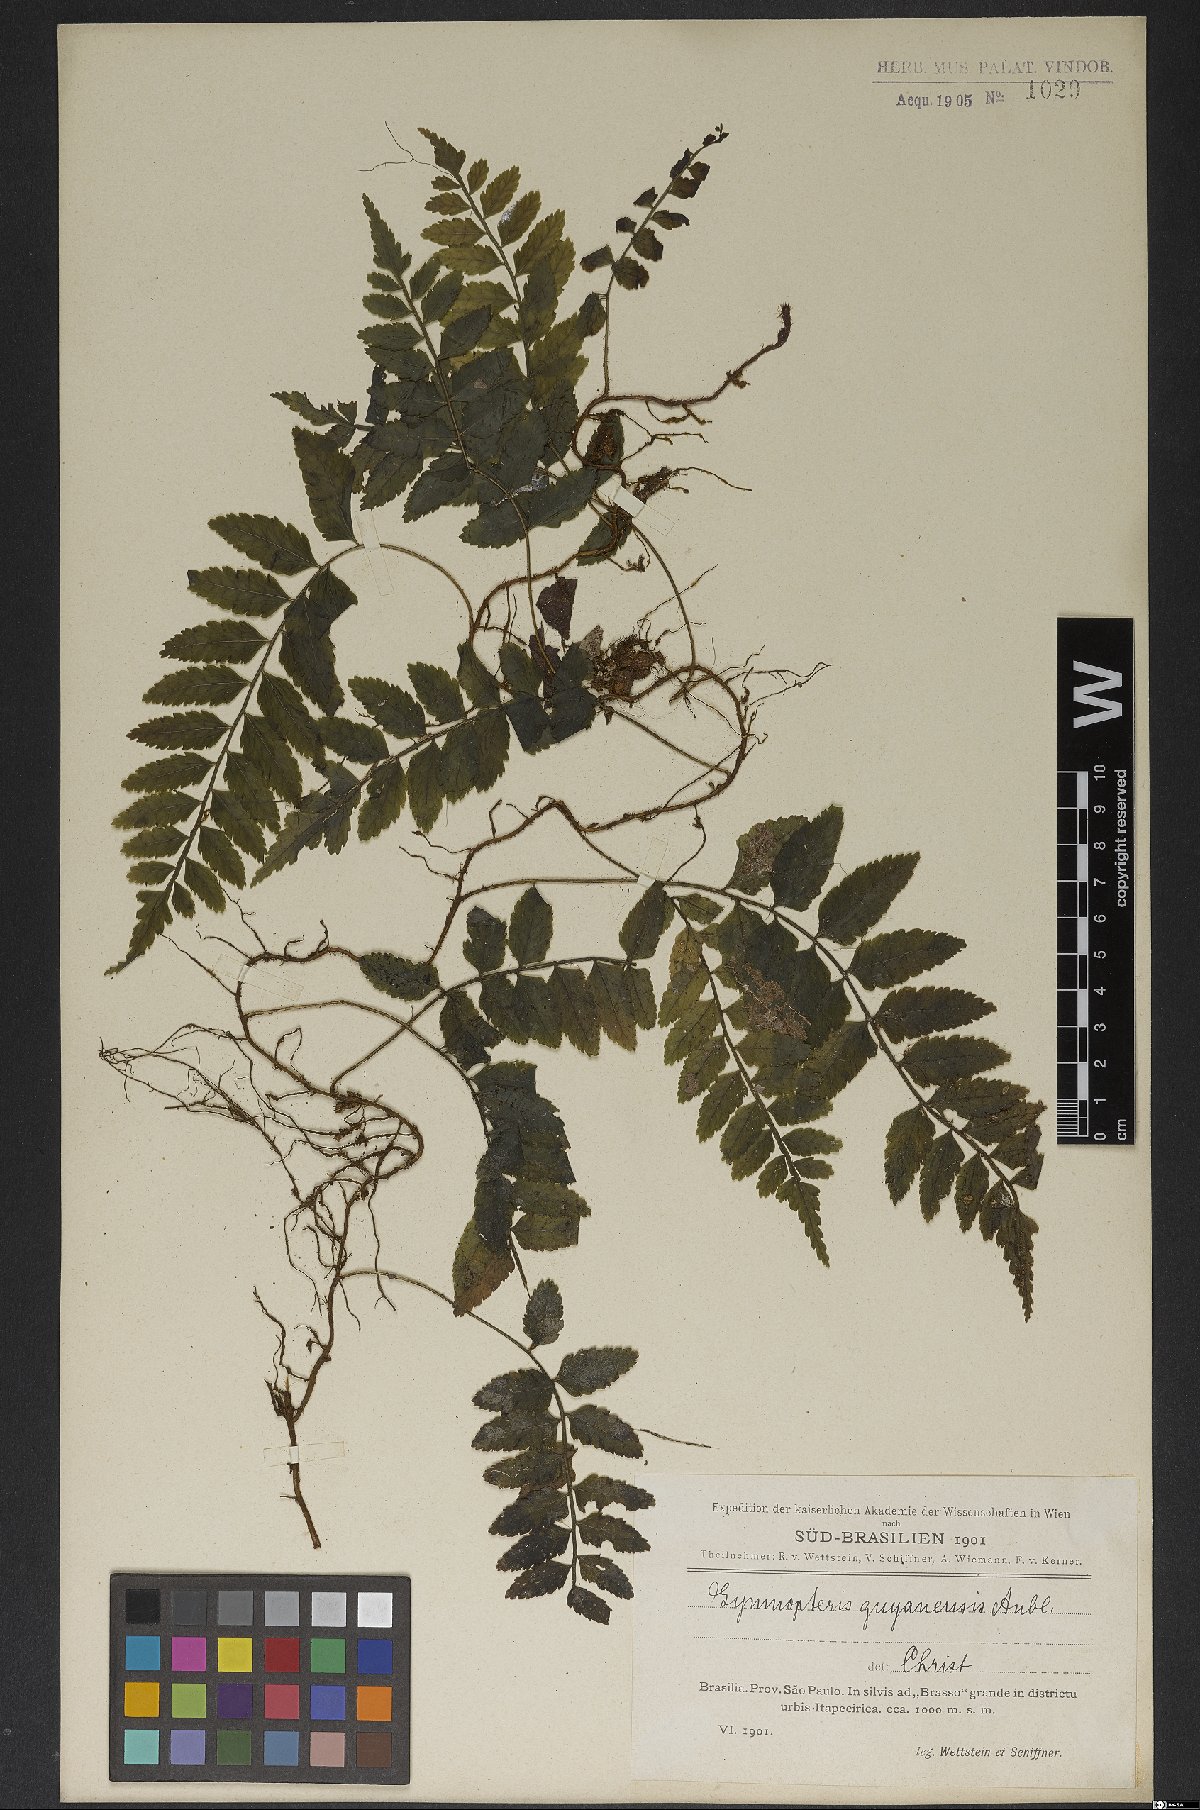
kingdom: Plantae
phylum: Tracheophyta
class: Polypodiopsida
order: Polypodiales
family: Dryopteridaceae
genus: Mickelia
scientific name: Mickelia guianensis
